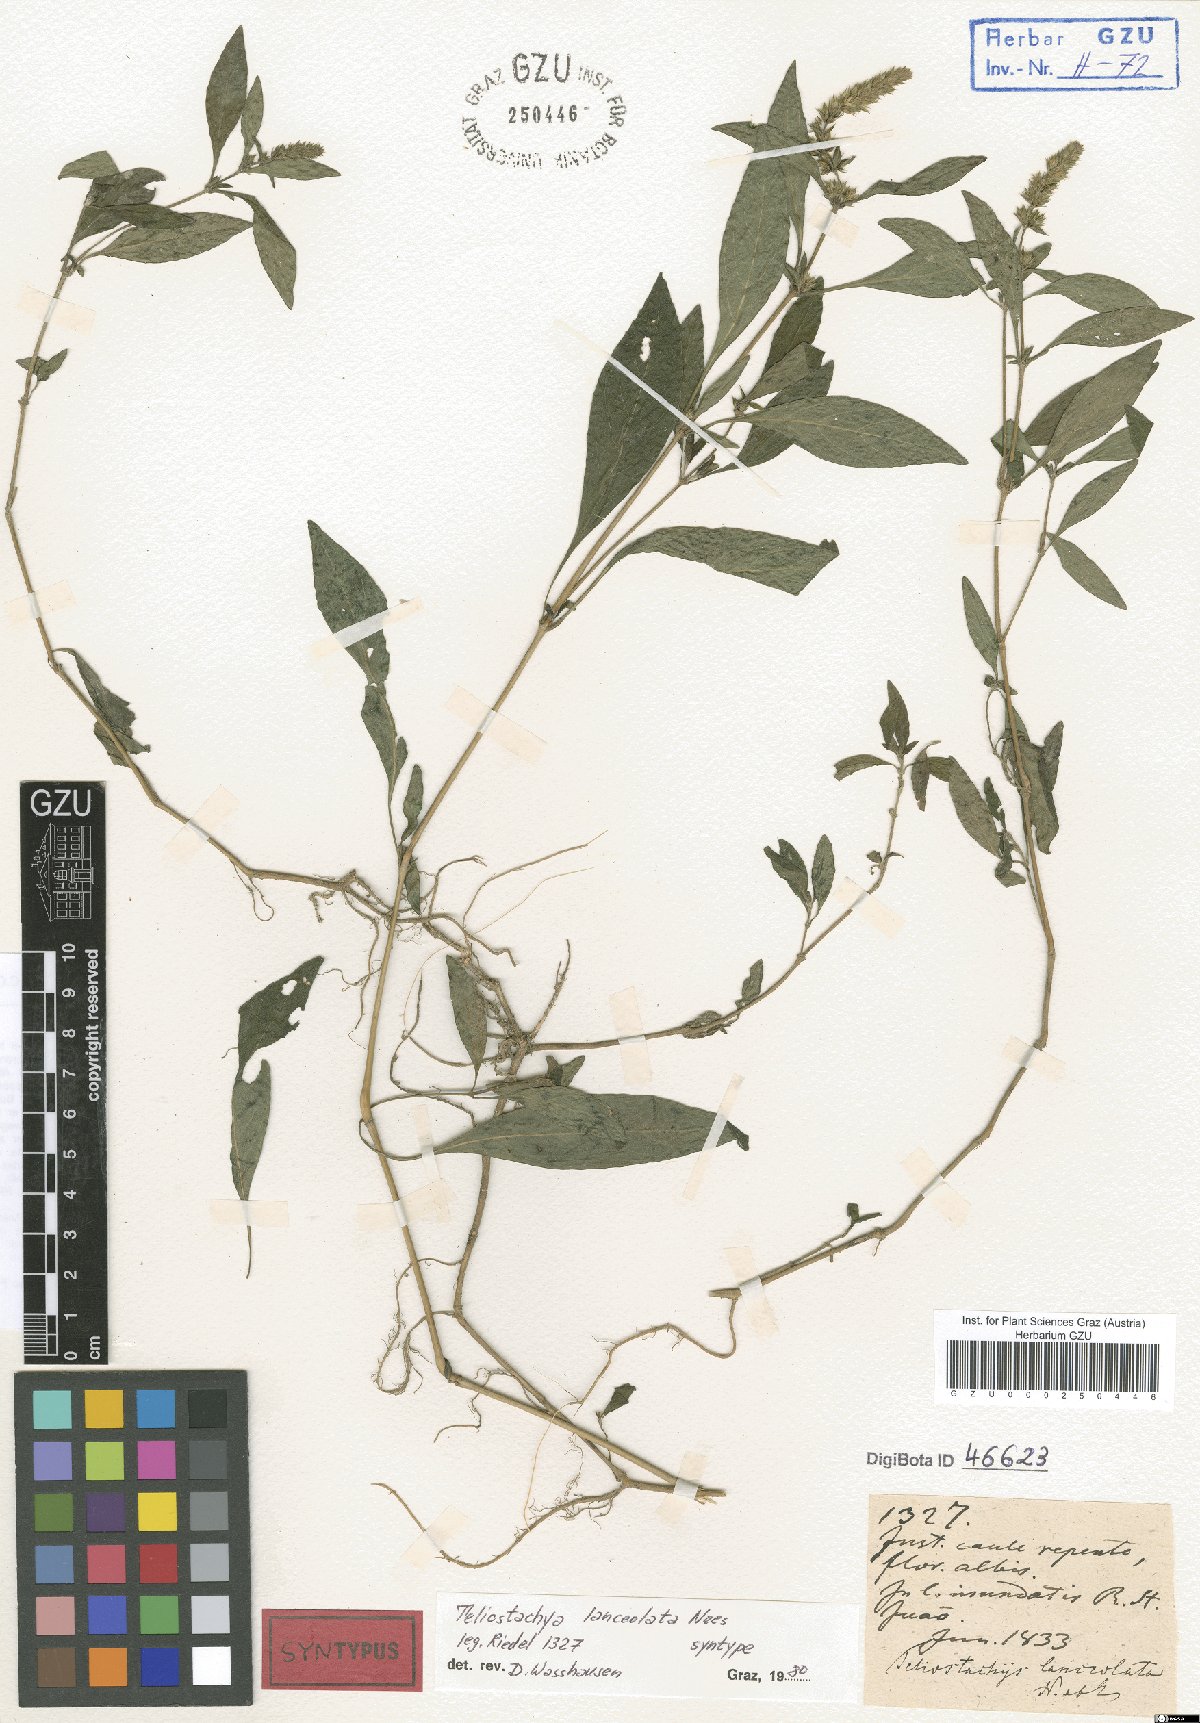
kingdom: Plantae
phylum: Tracheophyta
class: Magnoliopsida
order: Lamiales
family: Acanthaceae
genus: Lepidagathis
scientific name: Lepidagathis alopecuroidea
